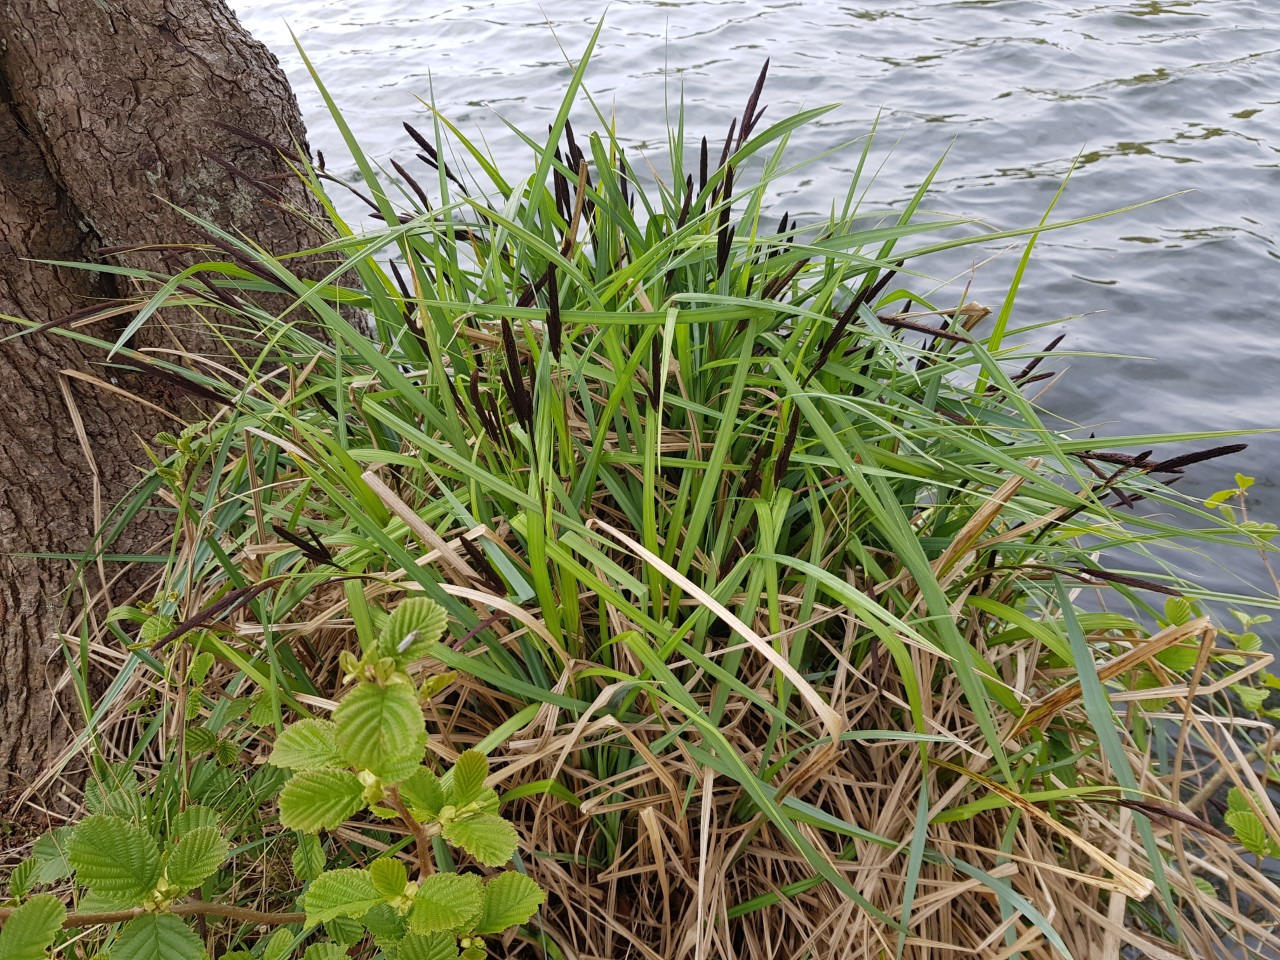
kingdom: Plantae
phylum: Tracheophyta
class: Liliopsida
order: Poales
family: Cyperaceae
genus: Carex
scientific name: Carex acuta
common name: Nikkende star
